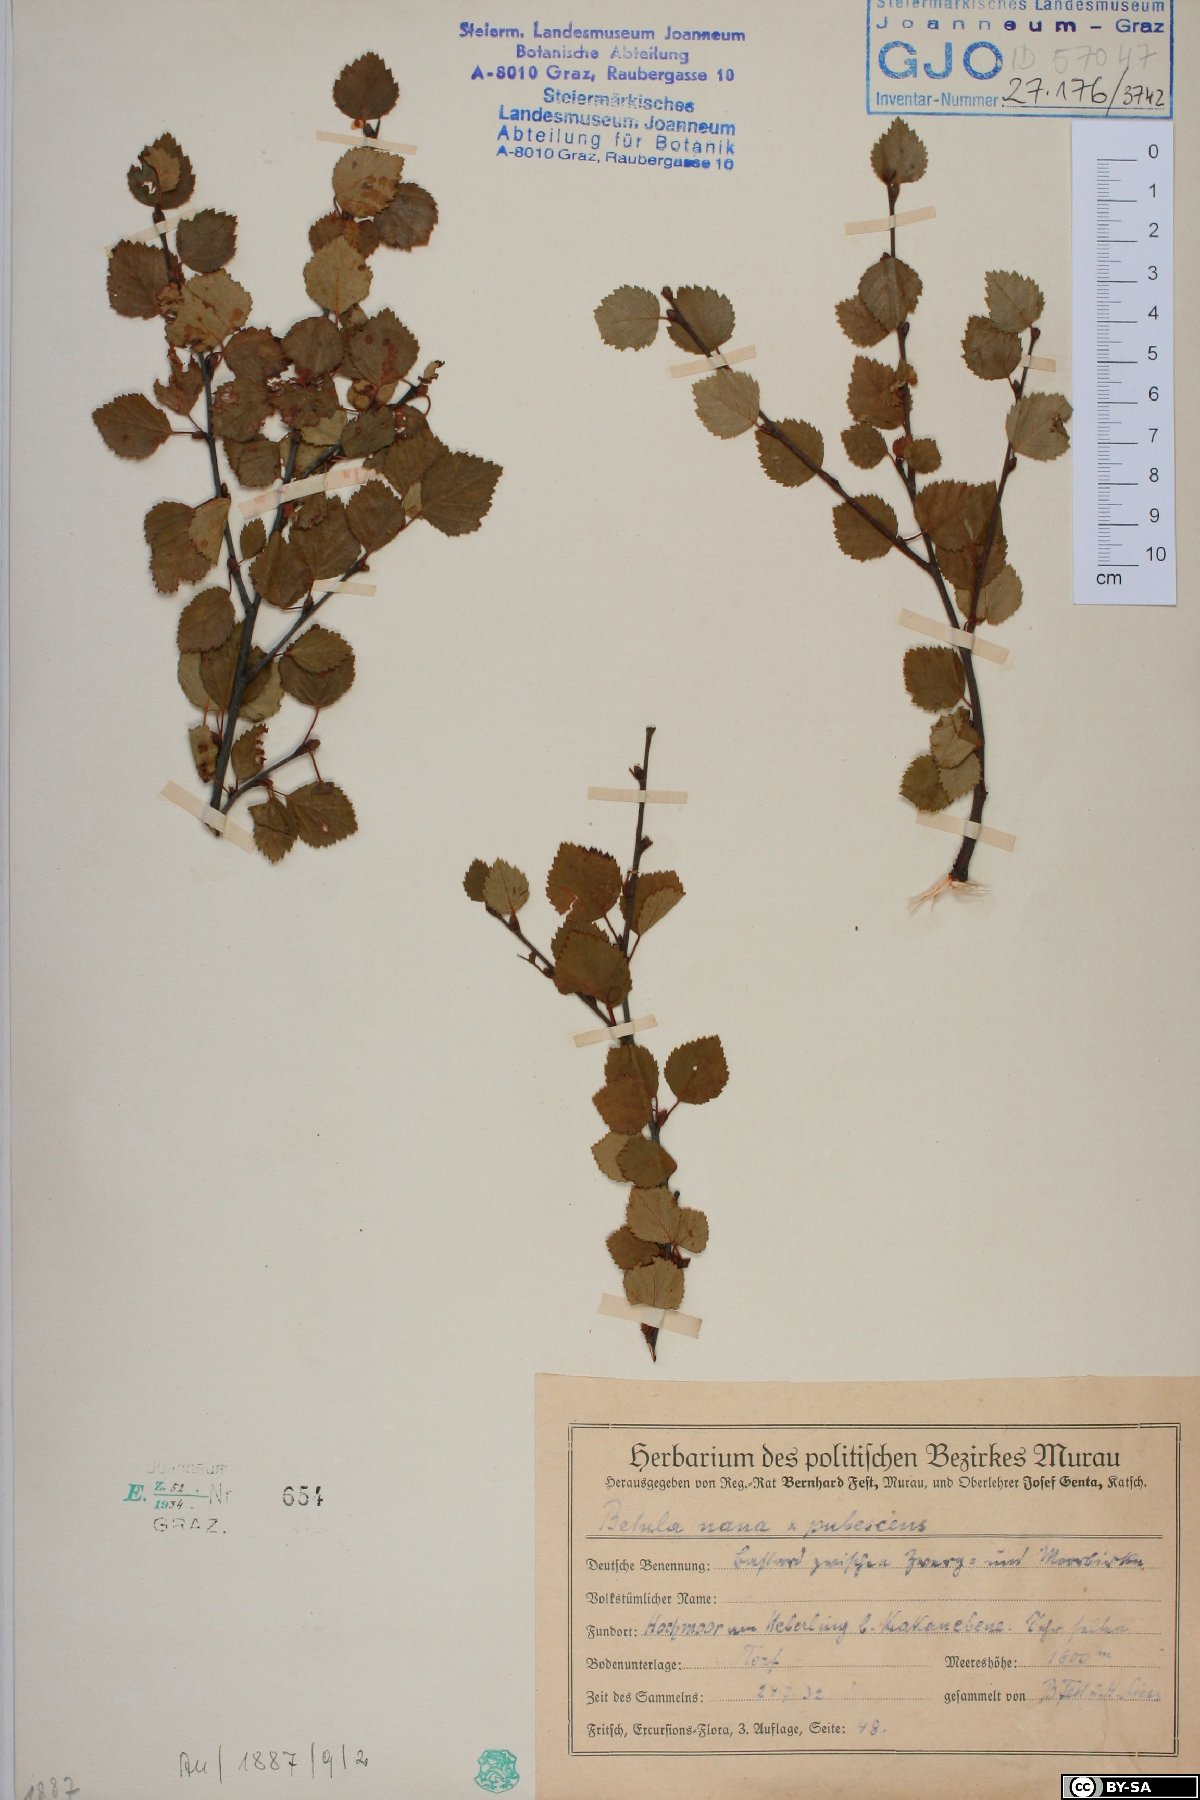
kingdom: Plantae
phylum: Tracheophyta
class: Magnoliopsida
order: Fagales
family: Betulaceae
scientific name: Betulaceae
